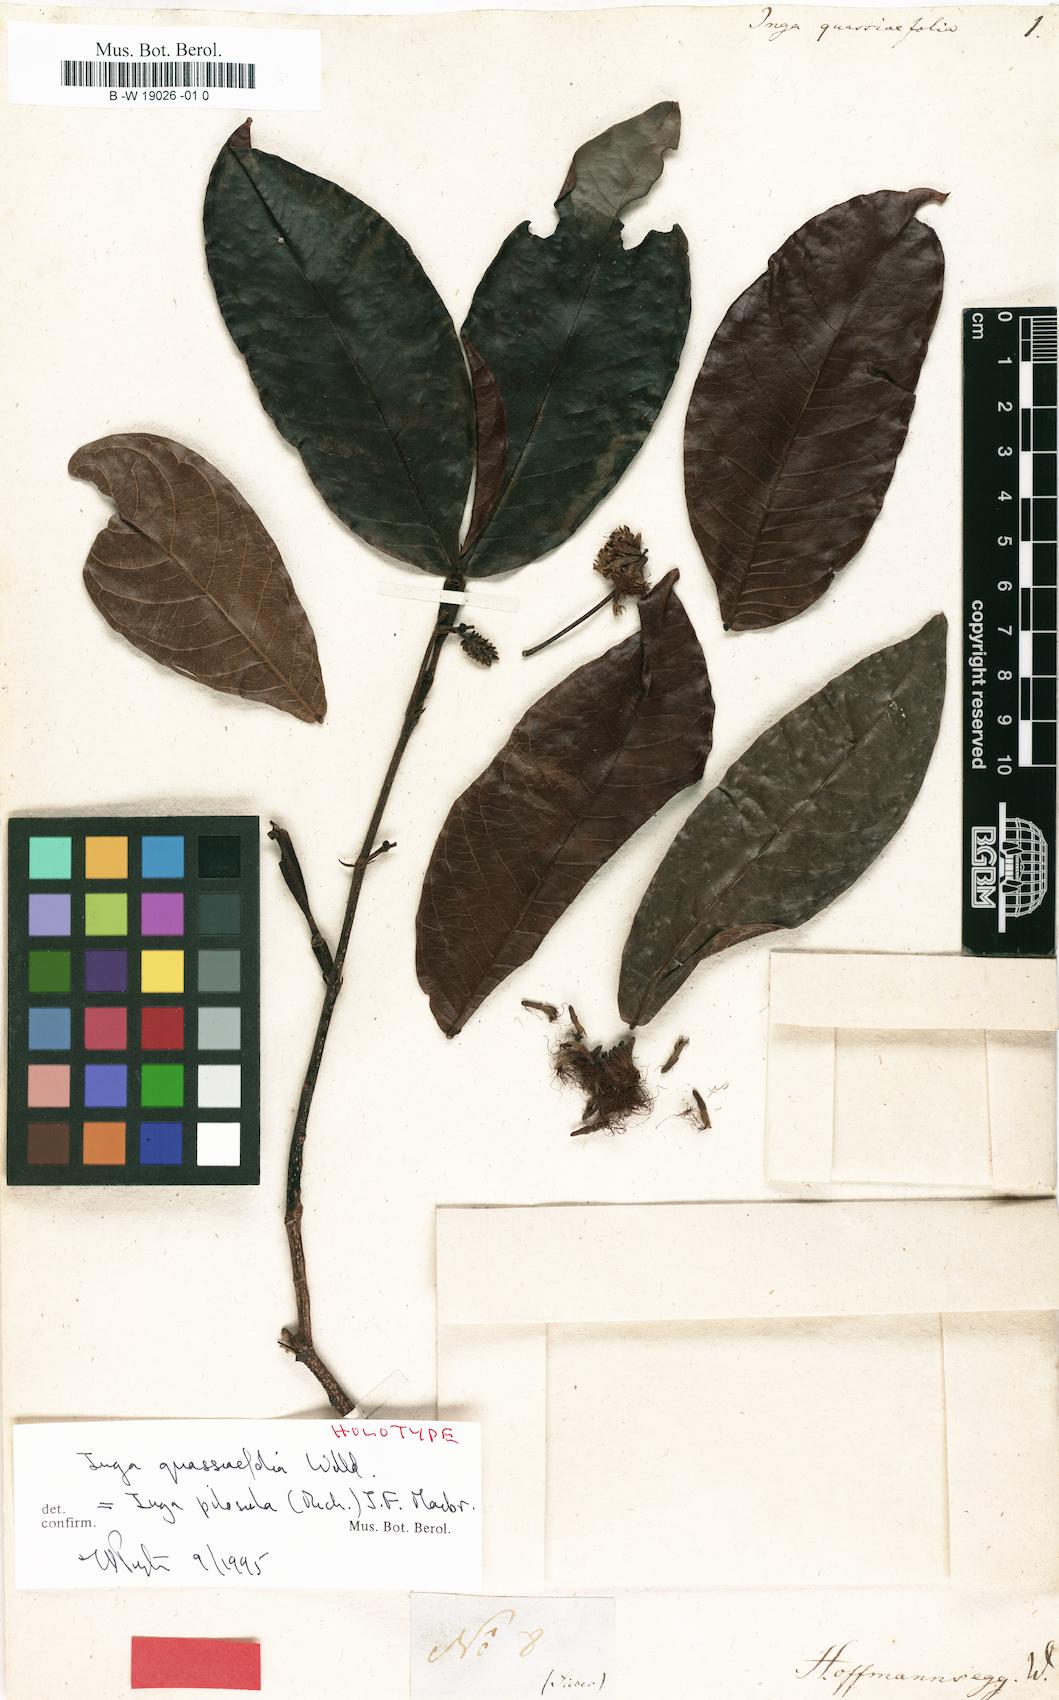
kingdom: Plantae
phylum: Tracheophyta
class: Magnoliopsida
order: Fabales
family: Fabaceae
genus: Inga
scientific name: Inga pilosula
